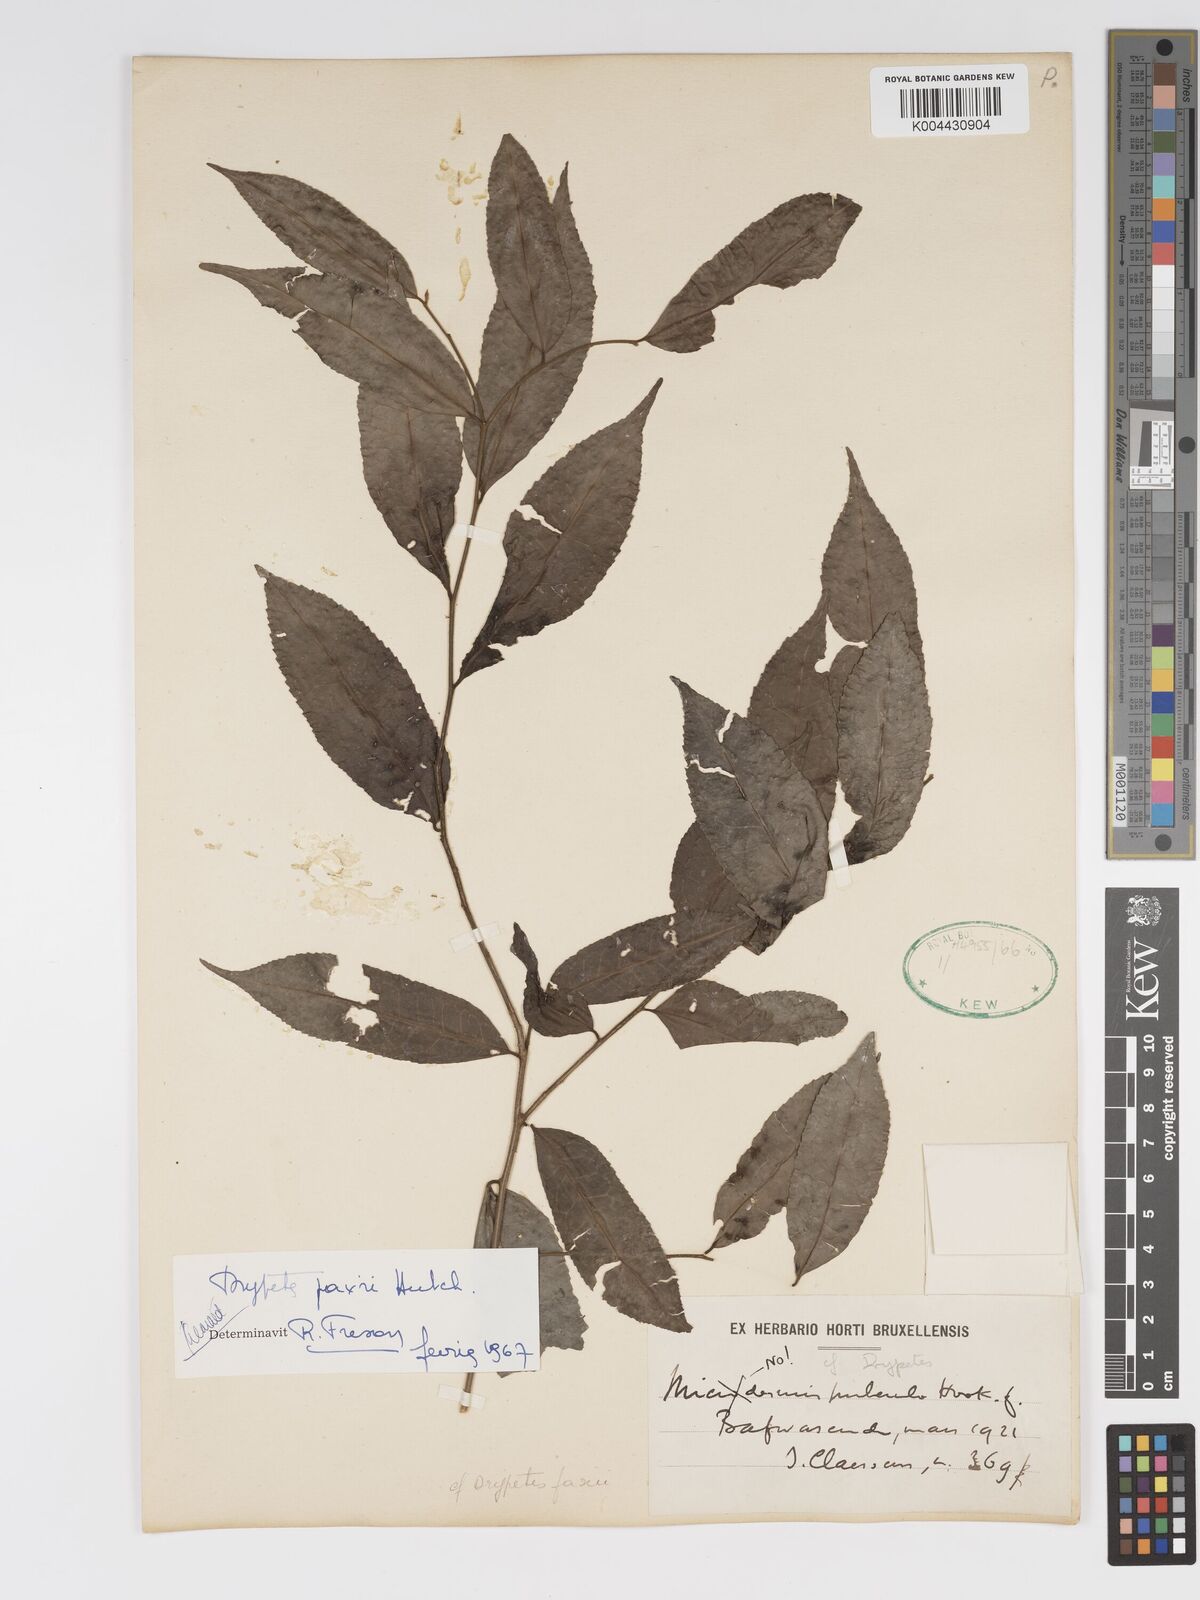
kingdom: Plantae
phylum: Tracheophyta
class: Magnoliopsida
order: Malpighiales
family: Putranjivaceae
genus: Drypetes
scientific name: Drypetes paxii
